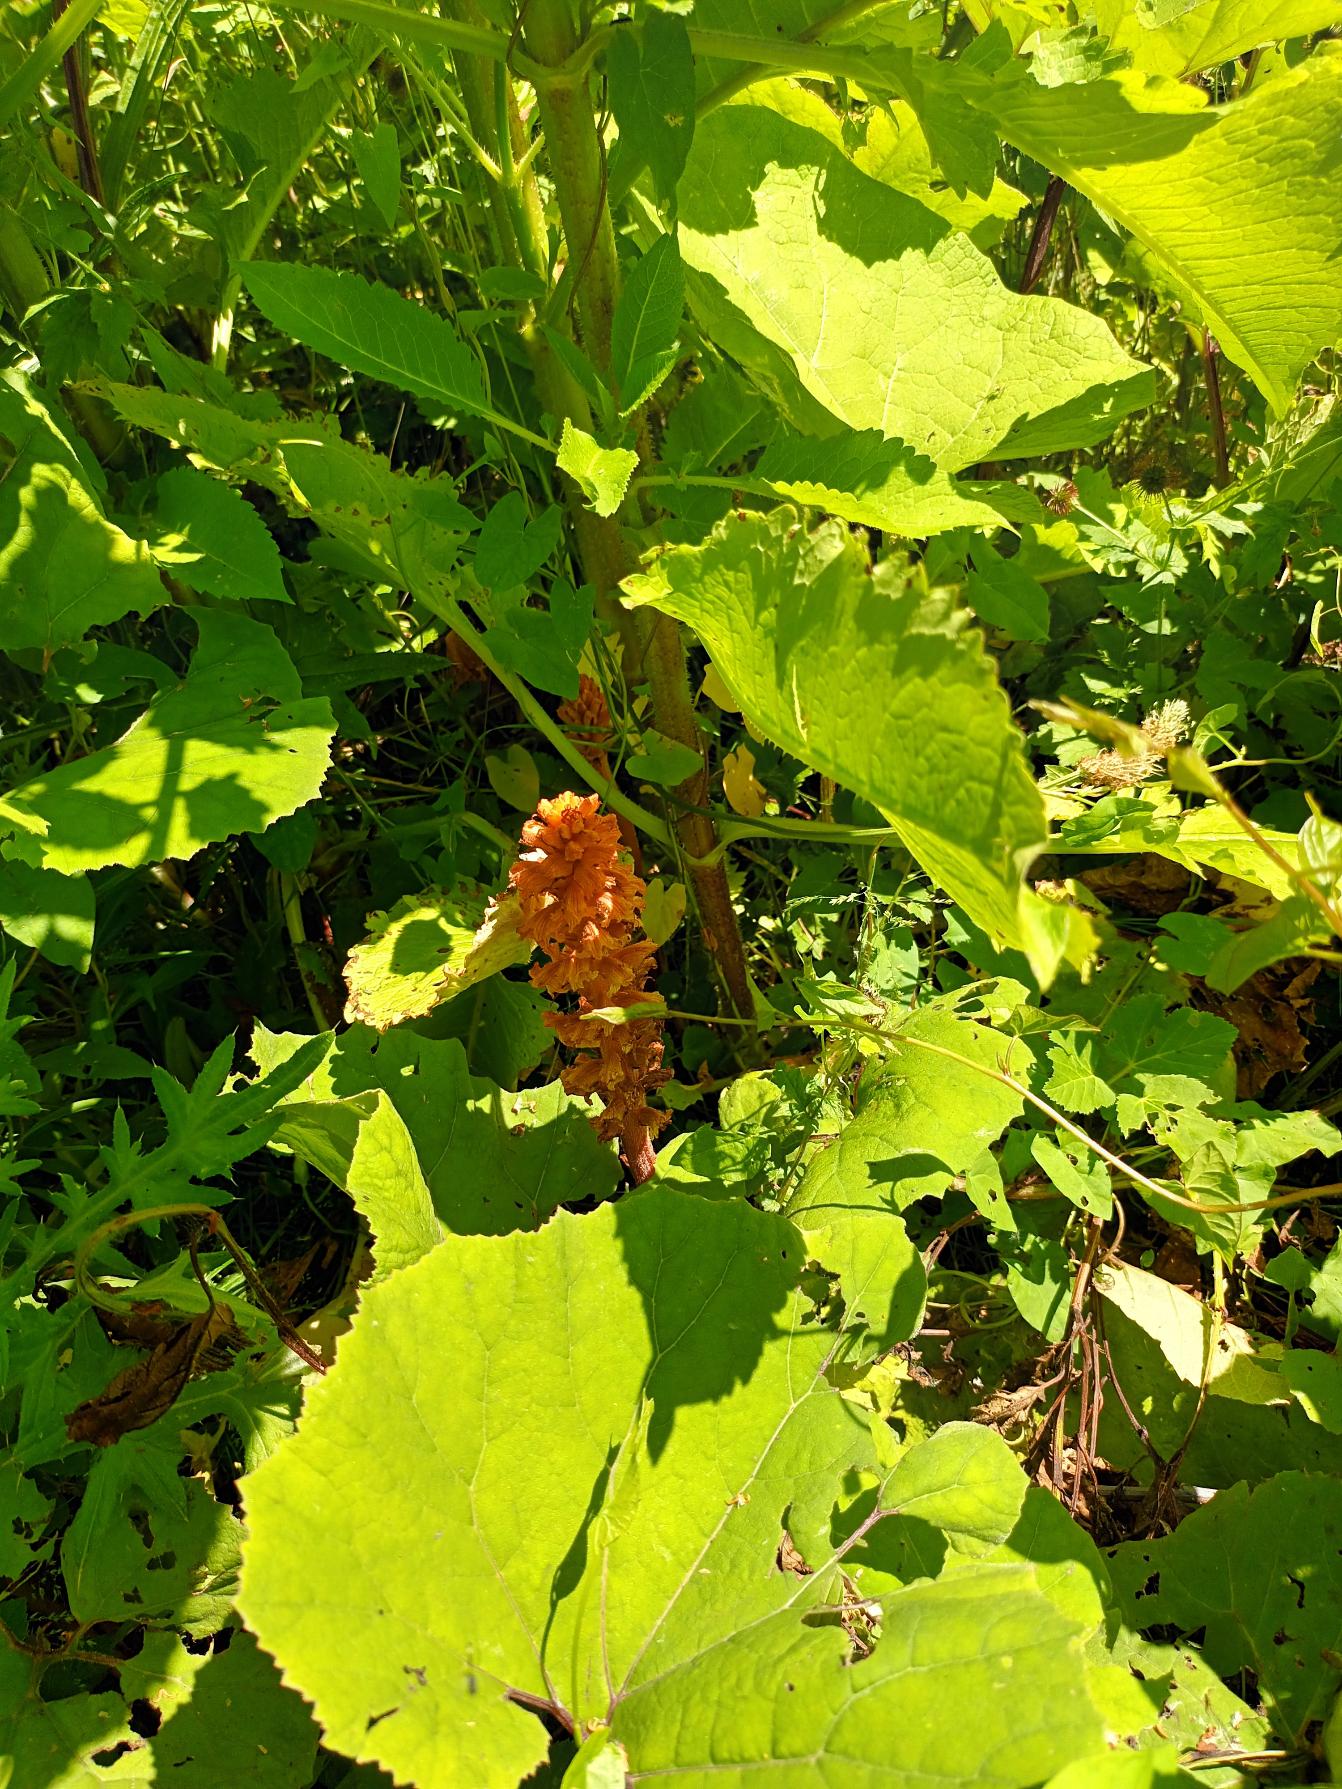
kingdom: Plantae
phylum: Tracheophyta
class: Magnoliopsida
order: Lamiales
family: Orobanchaceae
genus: Orobanche
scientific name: Orobanche flava
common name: Gul gyvelkvæler
